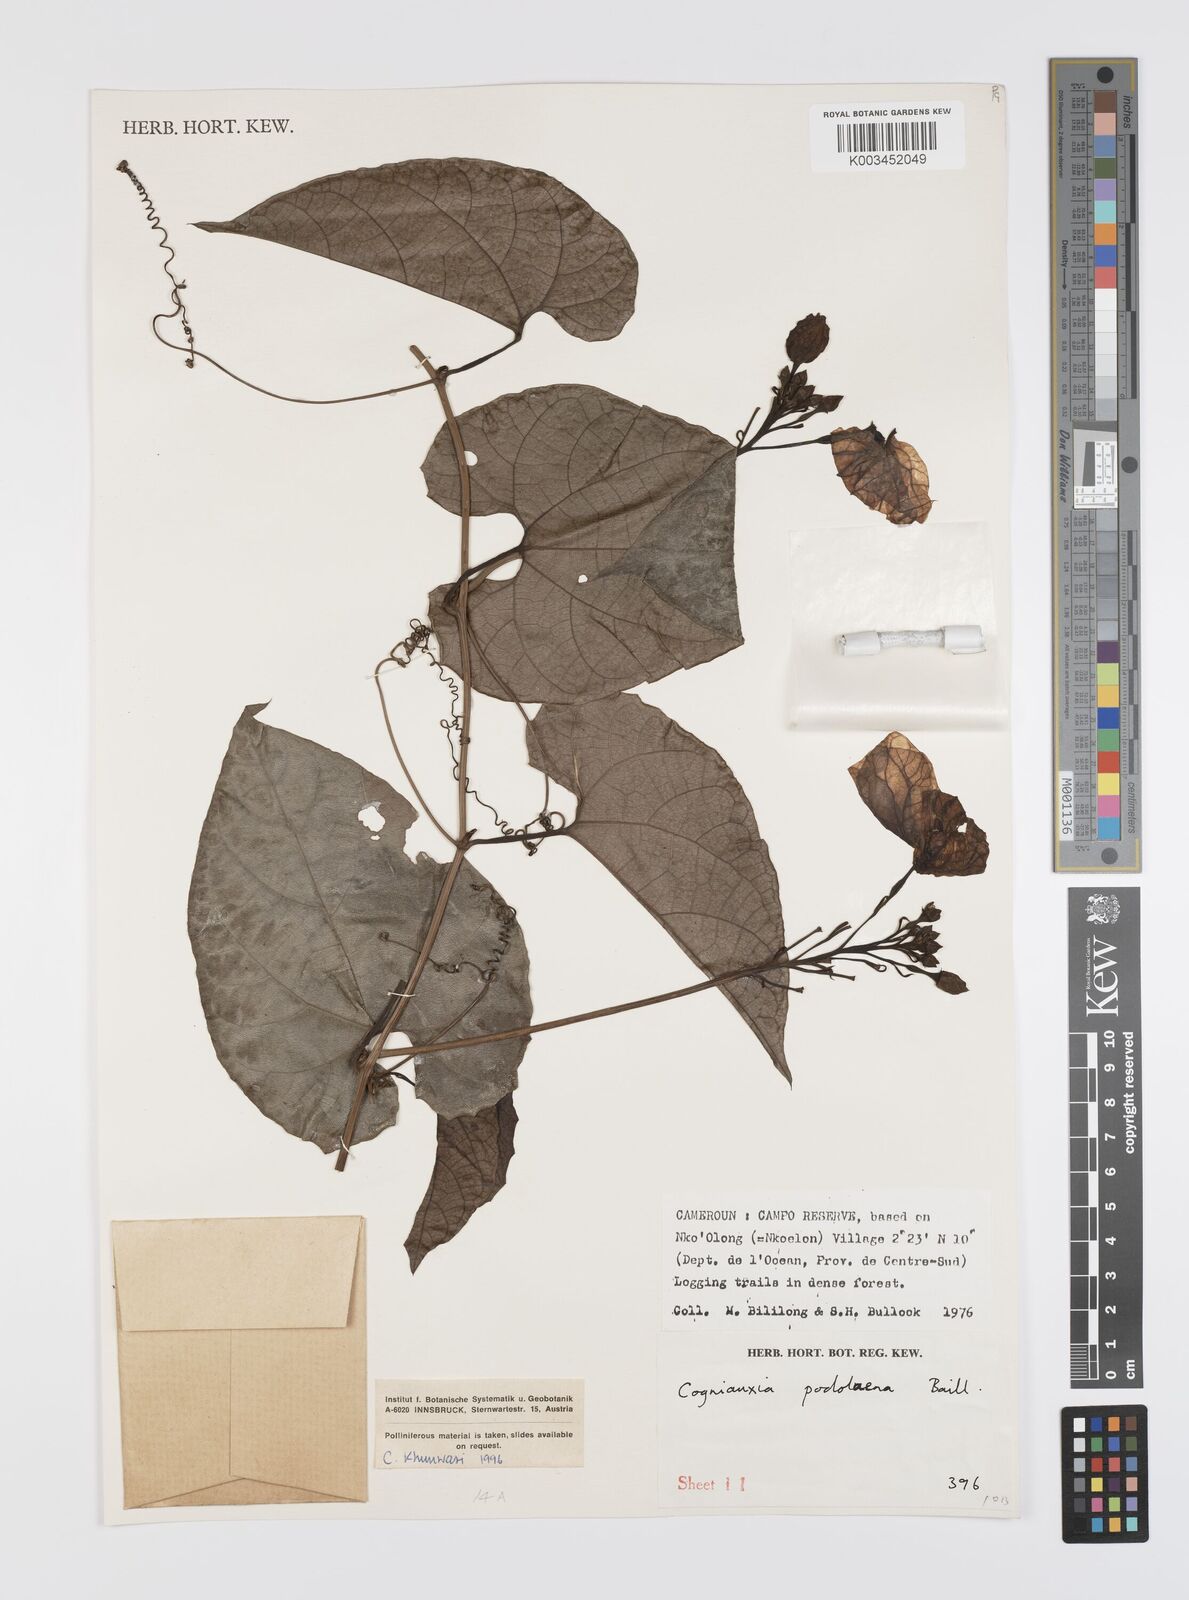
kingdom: Plantae
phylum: Tracheophyta
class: Magnoliopsida
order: Cucurbitales
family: Cucurbitaceae
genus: Cogniauxia
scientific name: Cogniauxia podolaena
